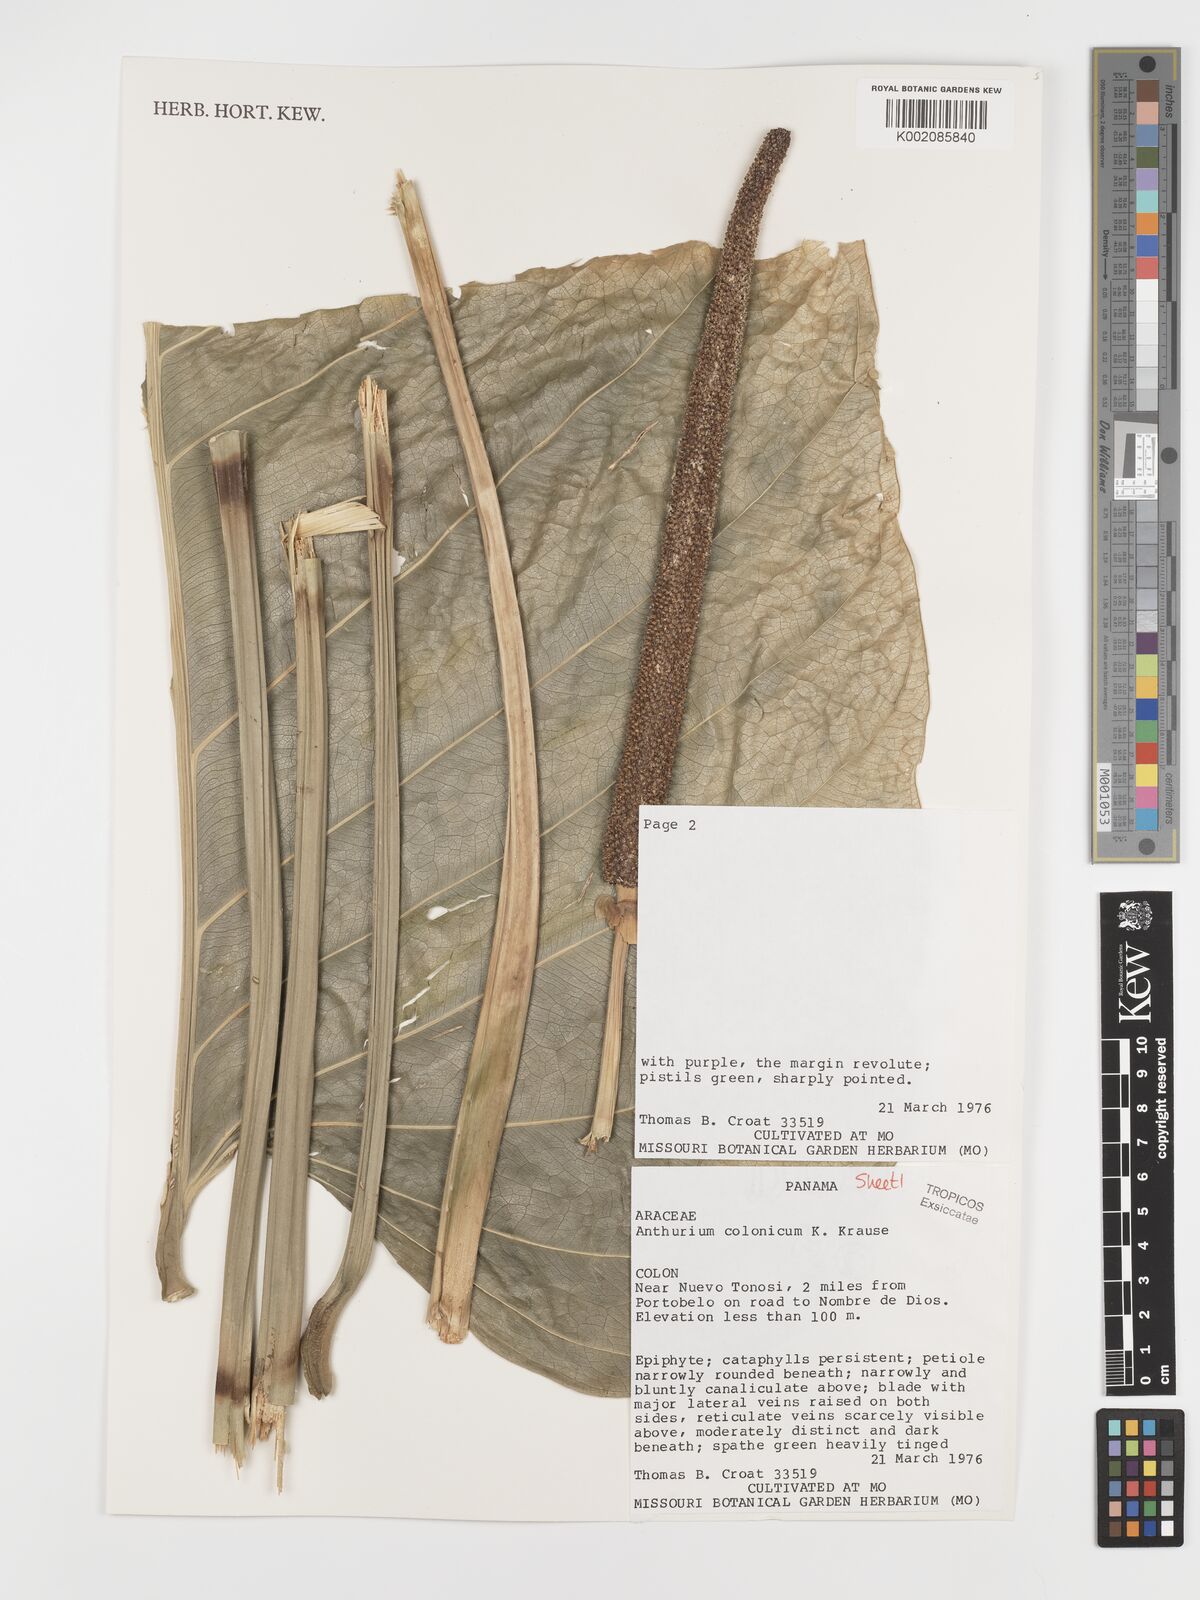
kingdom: Plantae
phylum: Tracheophyta
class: Liliopsida
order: Alismatales
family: Araceae
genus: Anthurium
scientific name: Anthurium colonicum
